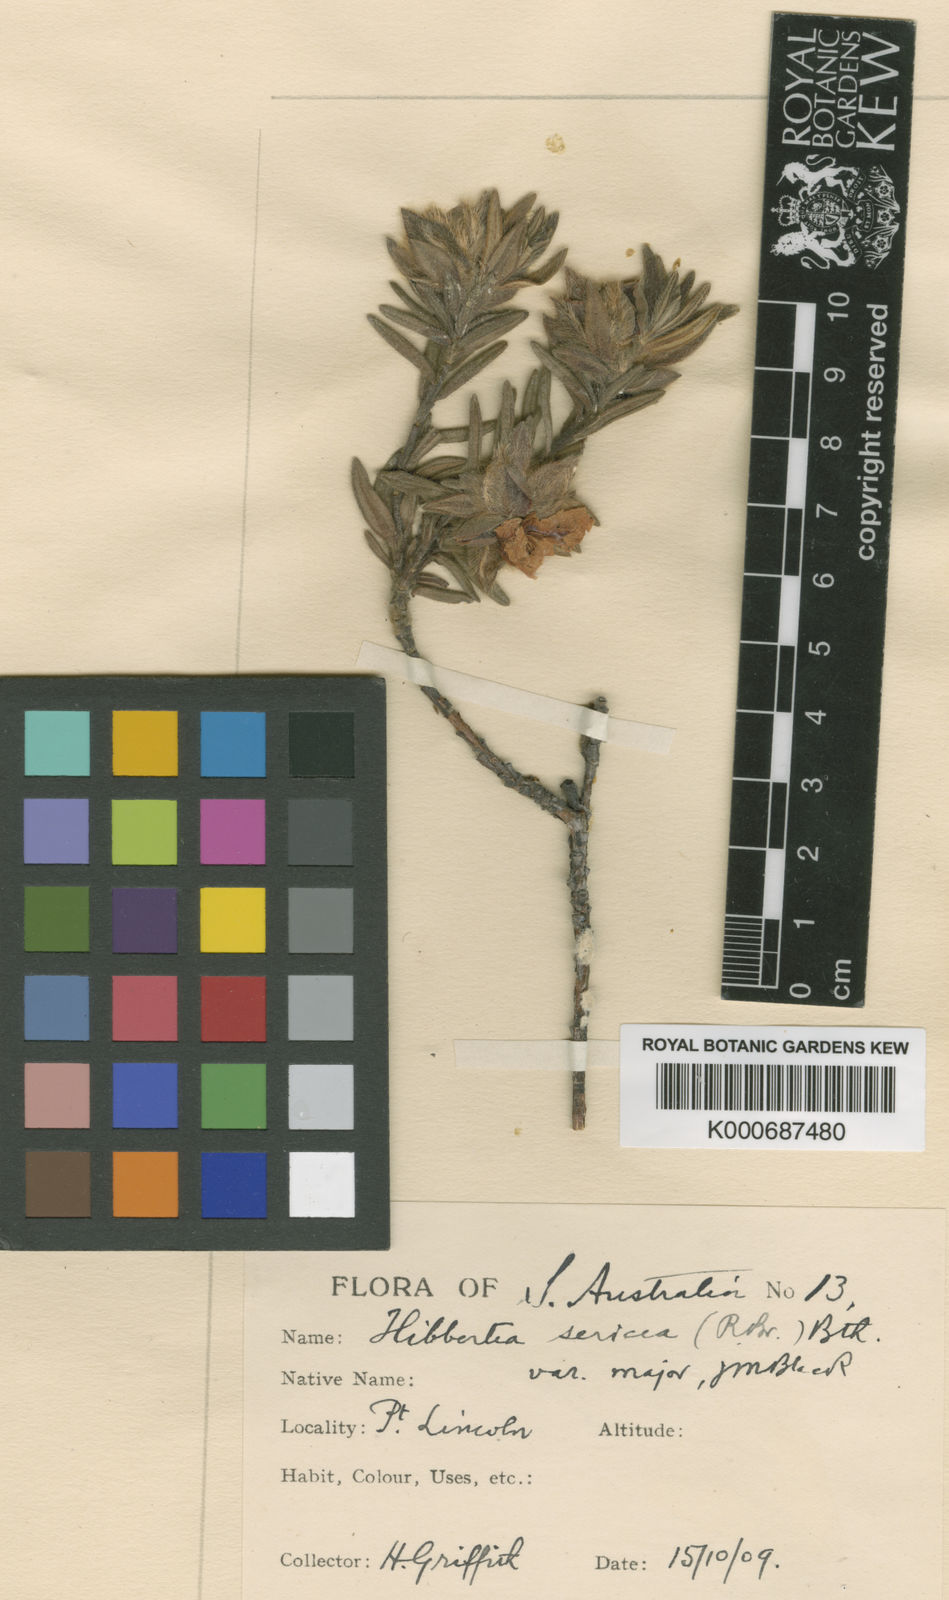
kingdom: Plantae
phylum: Tracheophyta
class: Magnoliopsida
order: Dilleniales
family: Dilleniaceae
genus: Hibbertia
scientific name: Hibbertia platyphylla
